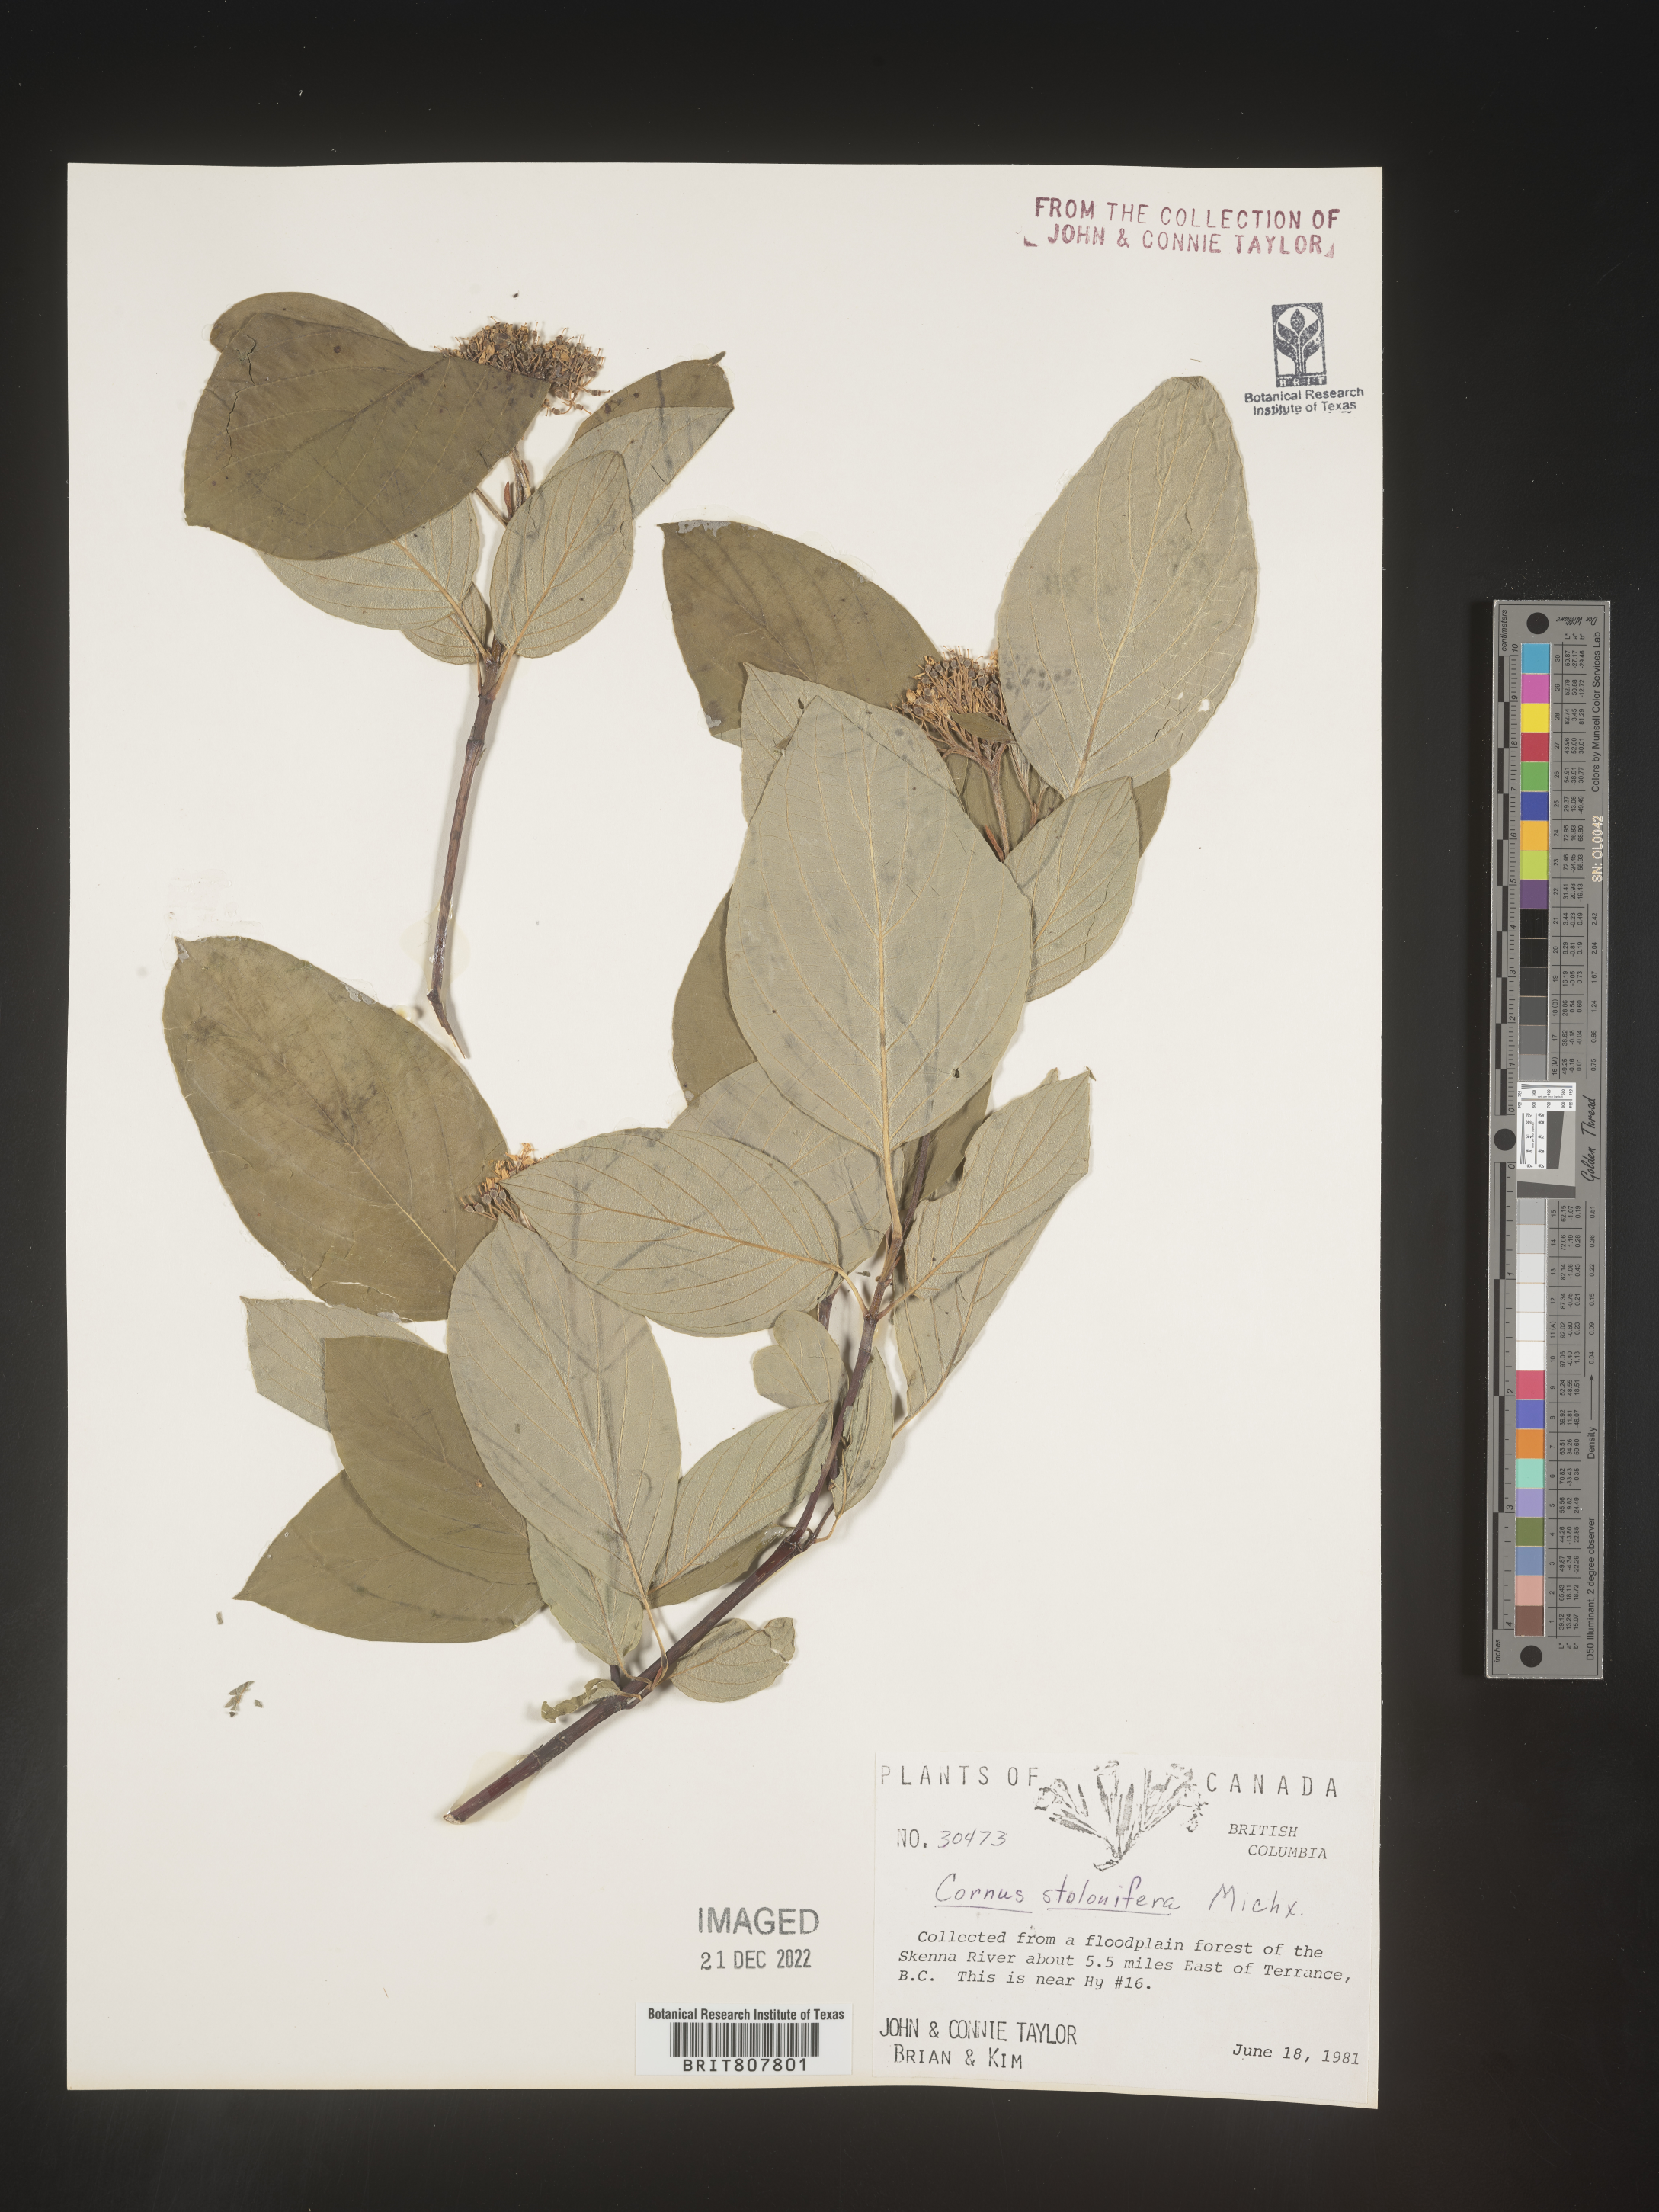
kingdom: Plantae
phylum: Tracheophyta
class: Magnoliopsida
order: Cornales
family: Cornaceae
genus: Cornus
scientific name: Cornus sericea
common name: Red-osier dogwood
